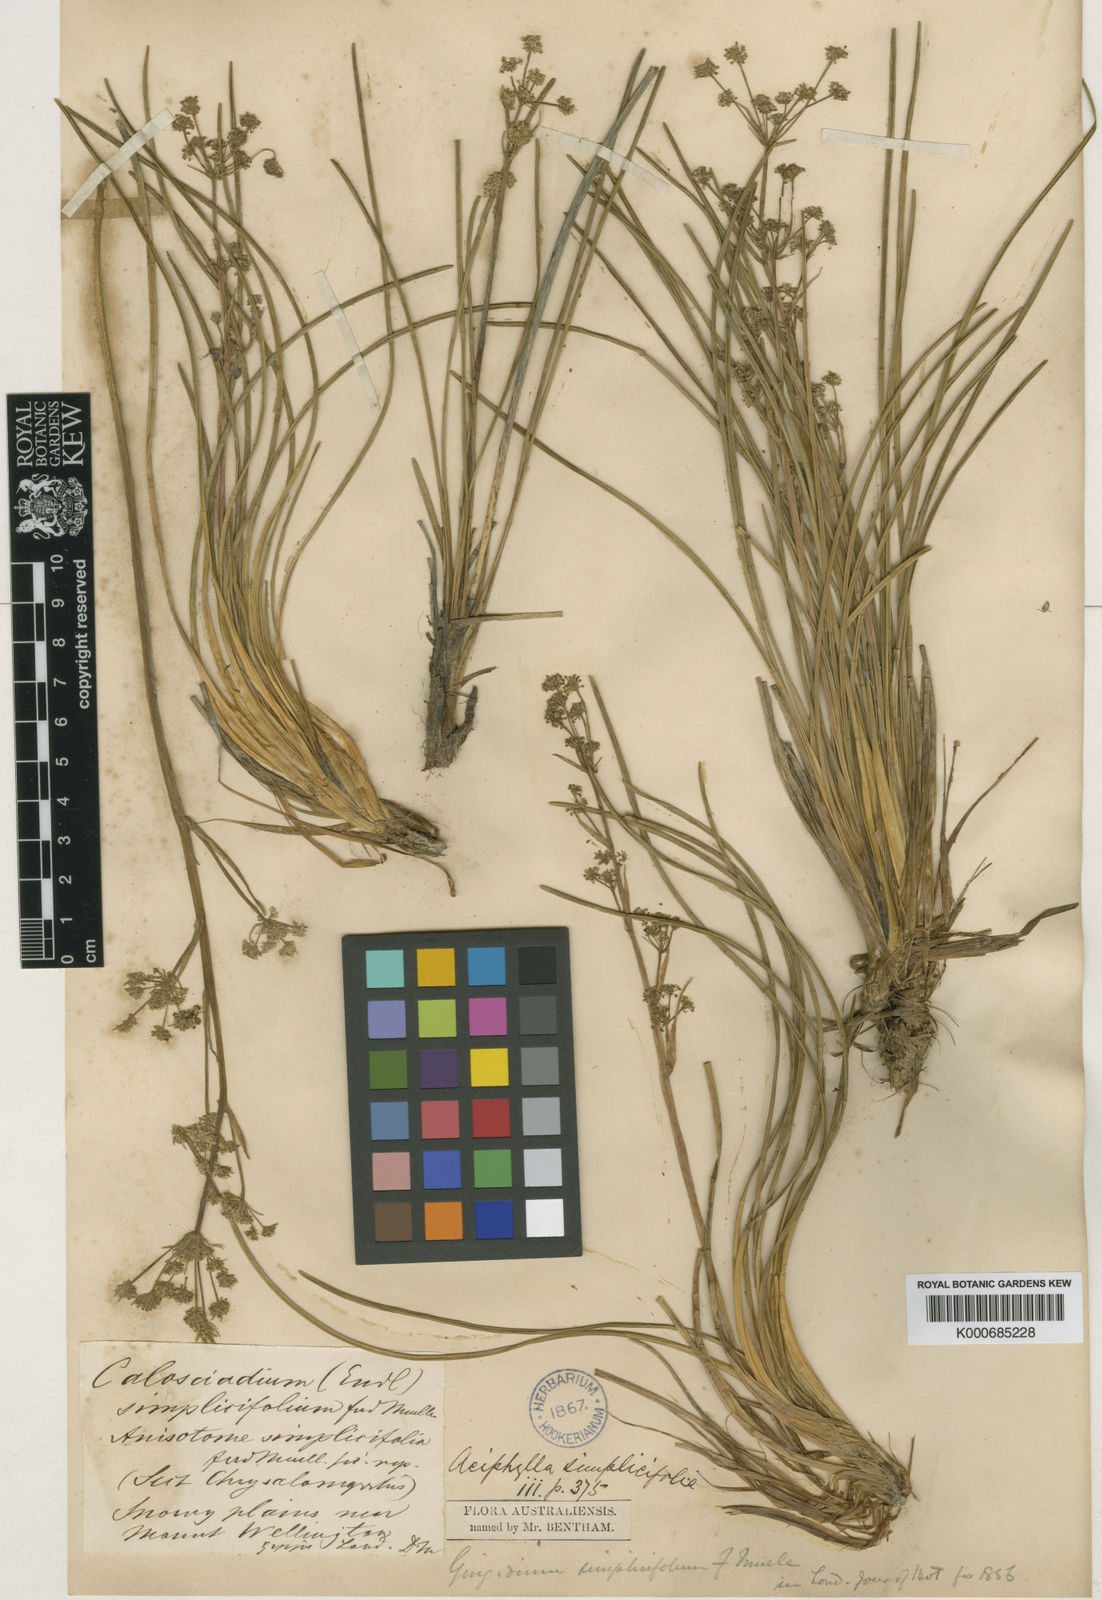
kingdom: Plantae
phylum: Tracheophyta
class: Magnoliopsida
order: Apiales
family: Apiaceae
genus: Aciphylla
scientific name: Aciphylla simplicifolia
